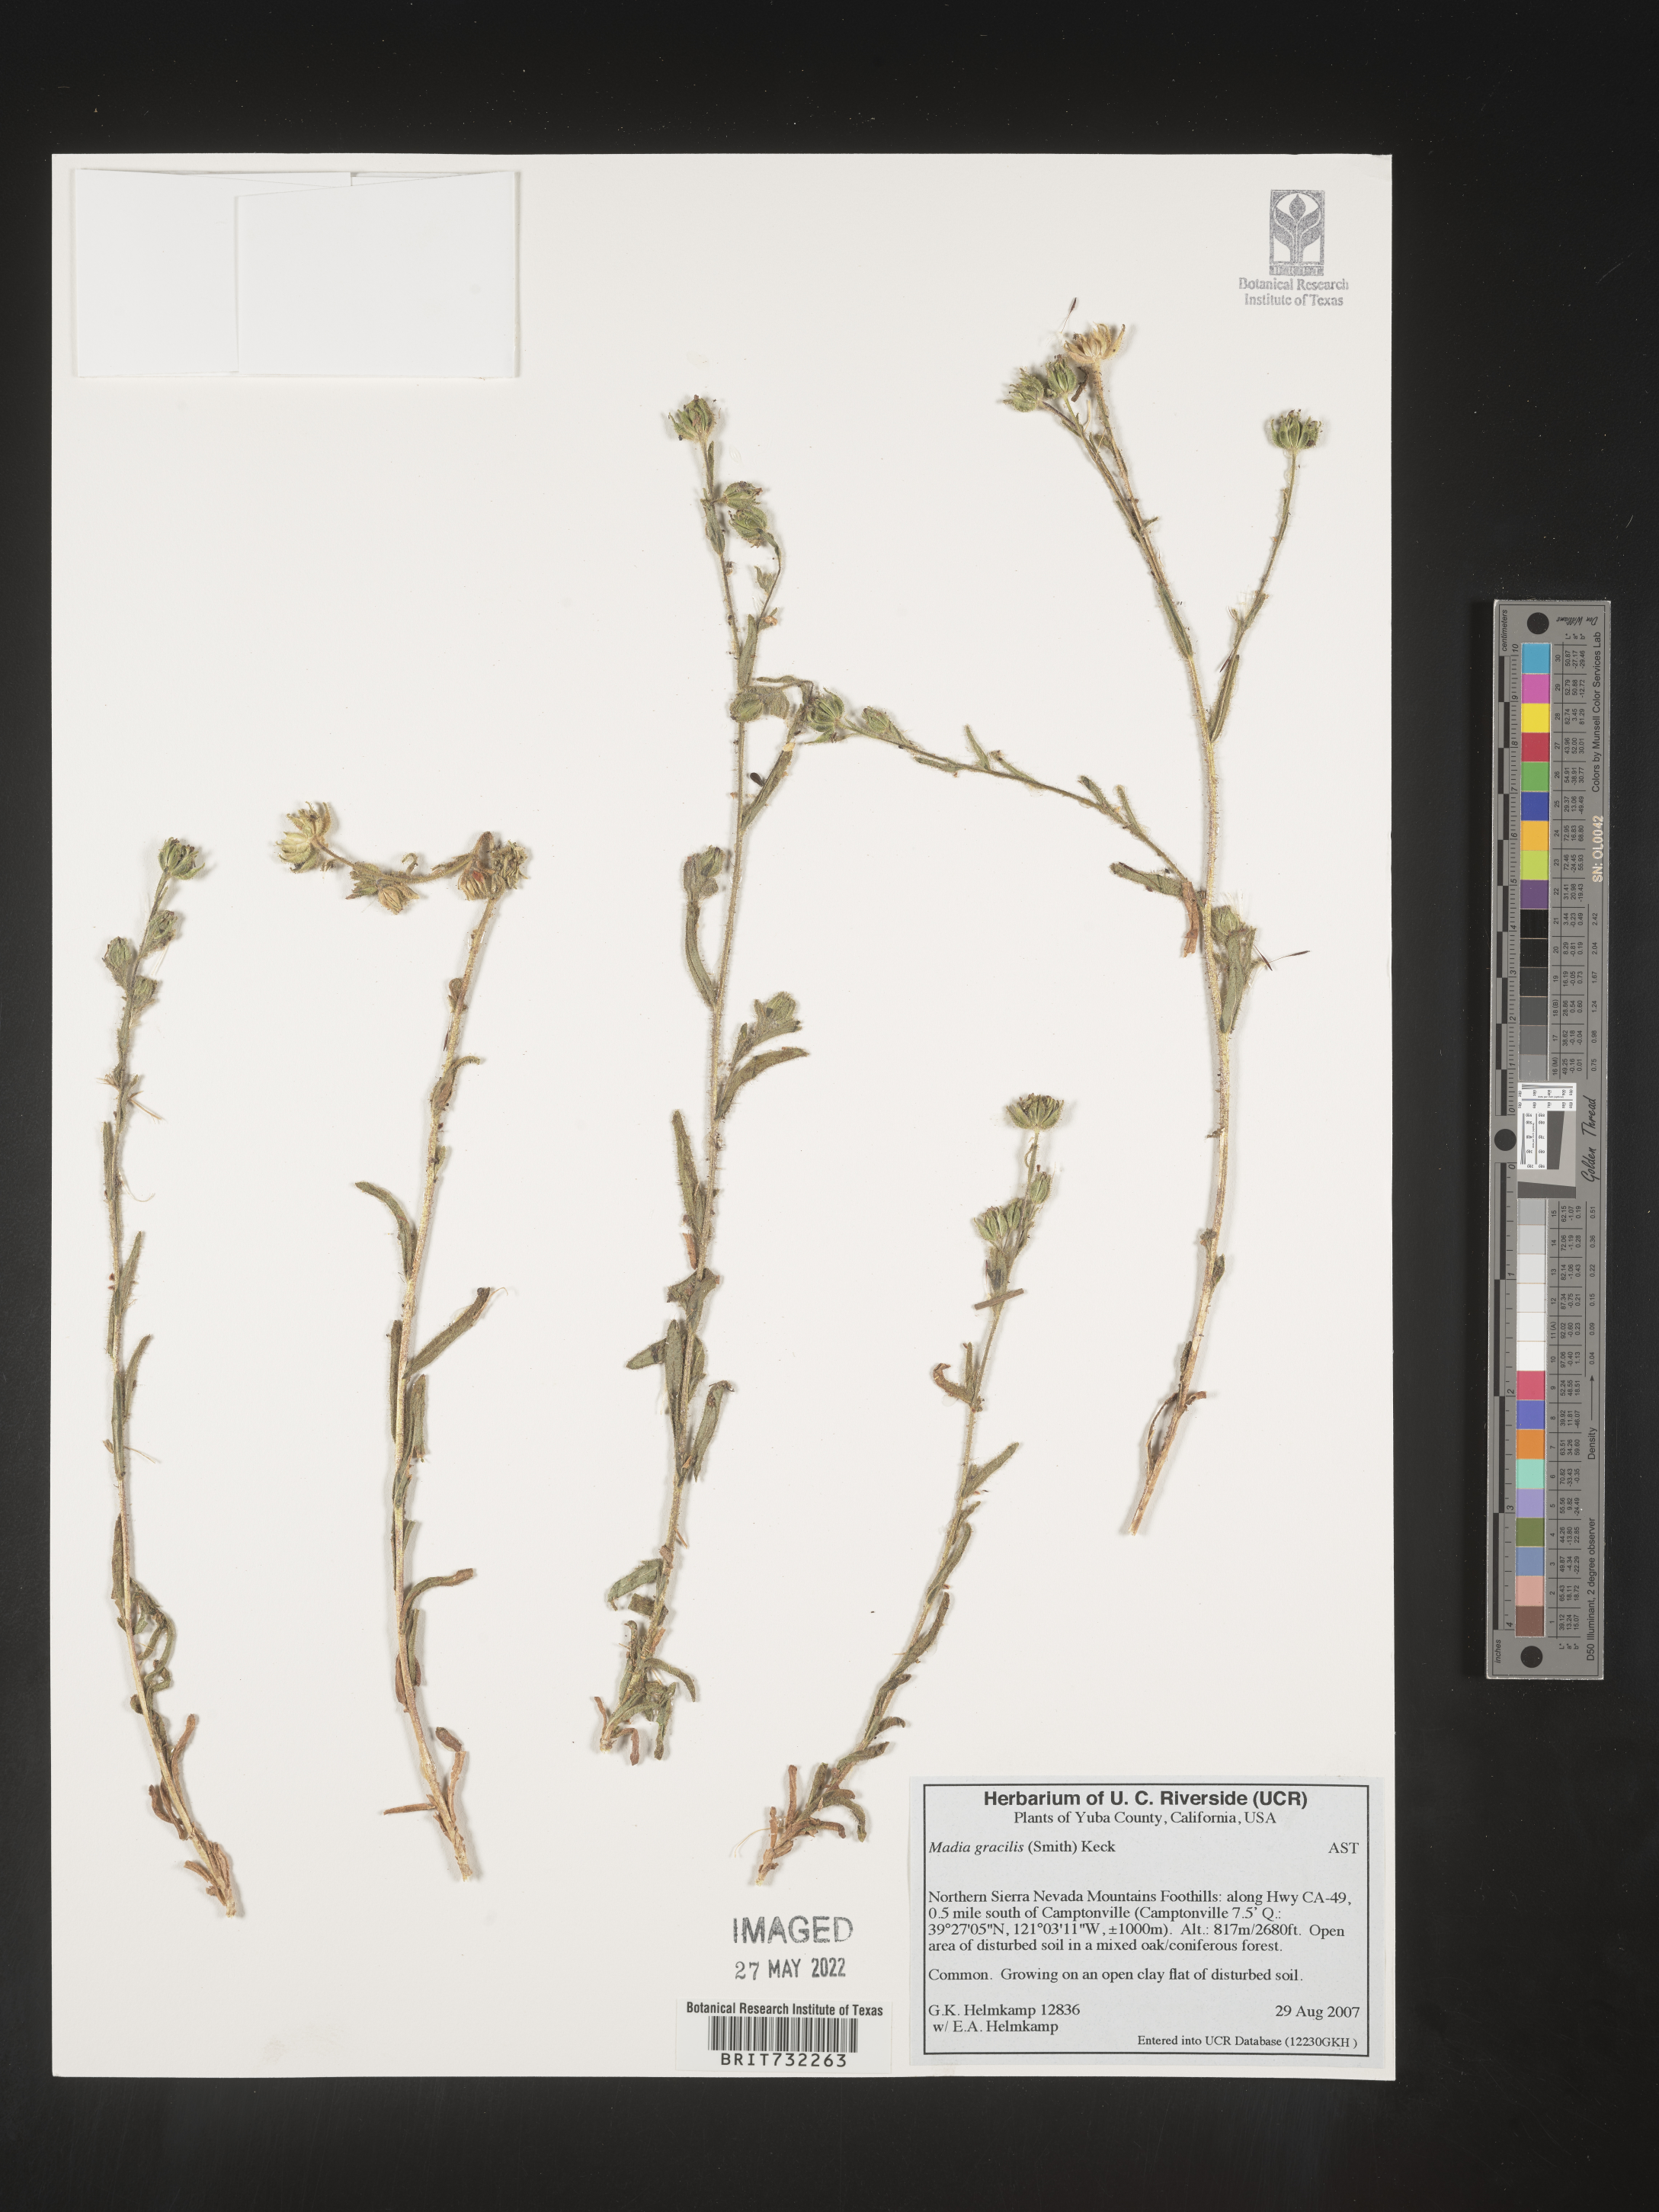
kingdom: Plantae
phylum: Tracheophyta
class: Magnoliopsida
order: Asterales
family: Asteraceae
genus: Madia
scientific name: Madia gracilis
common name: Grassy tarweed
